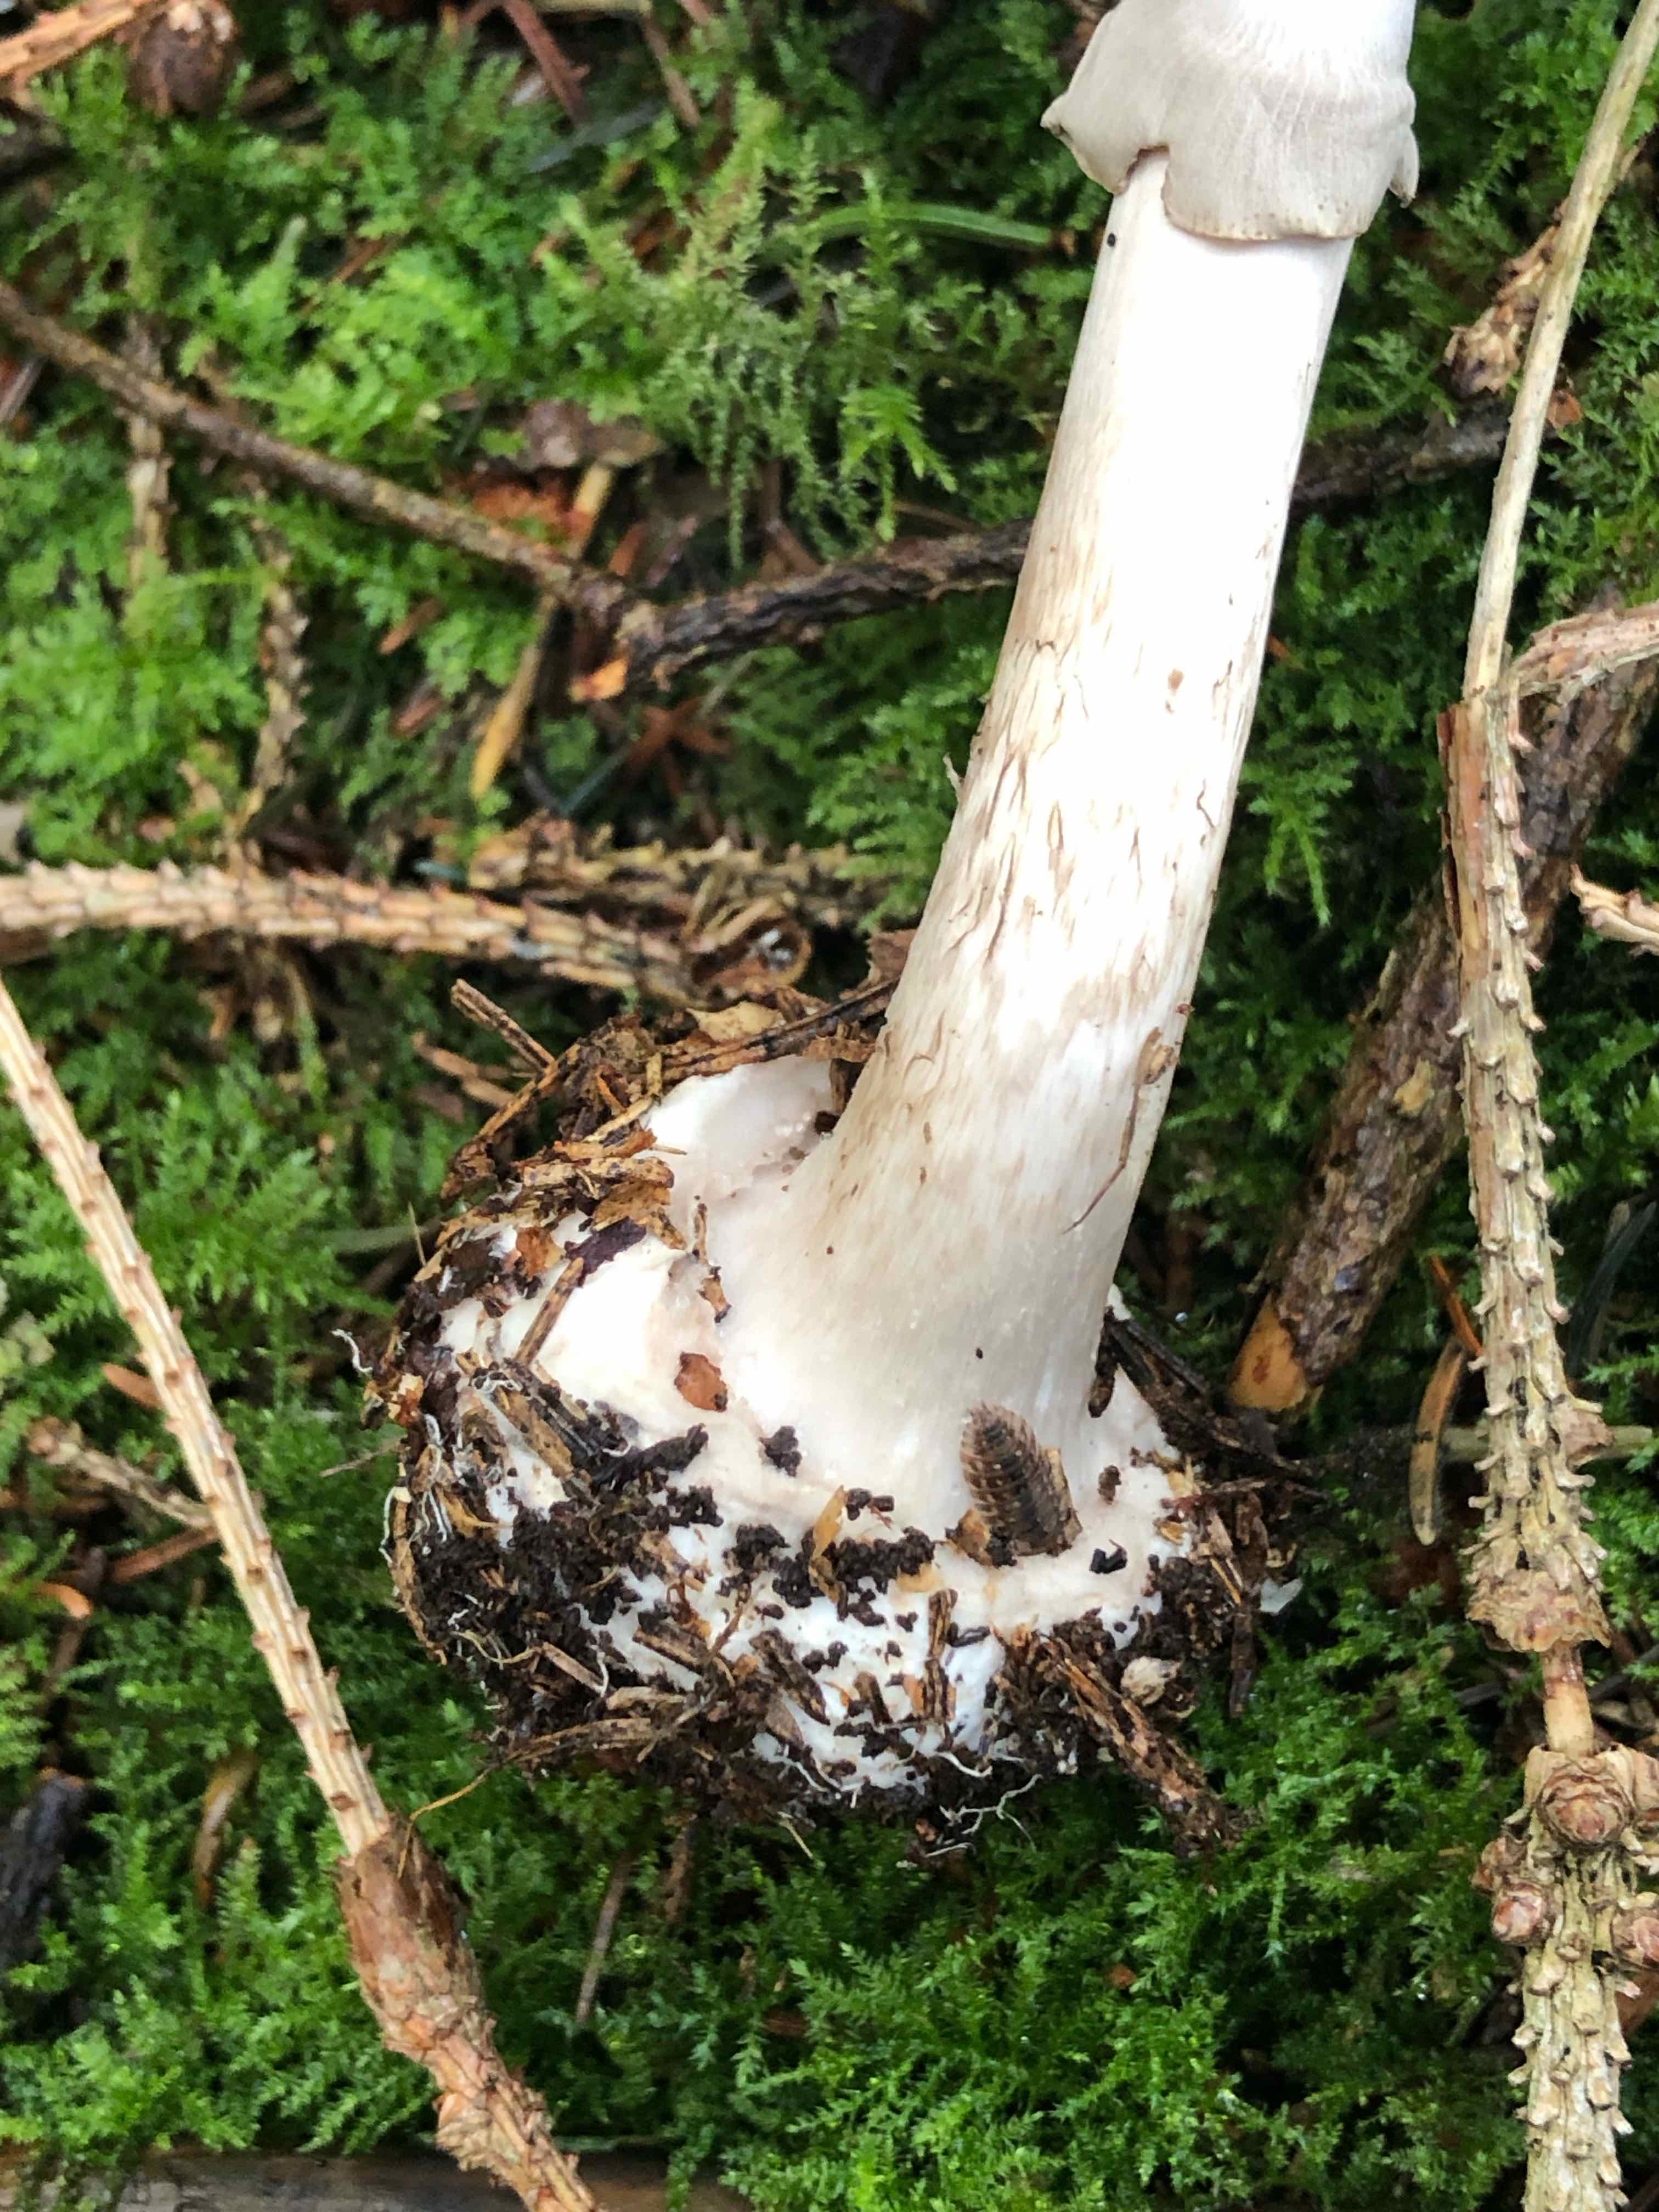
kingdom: Fungi
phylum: Basidiomycota
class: Agaricomycetes
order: Agaricales
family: Amanitaceae
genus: Amanita
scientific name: Amanita porphyria
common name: porfyr-fluesvamp
